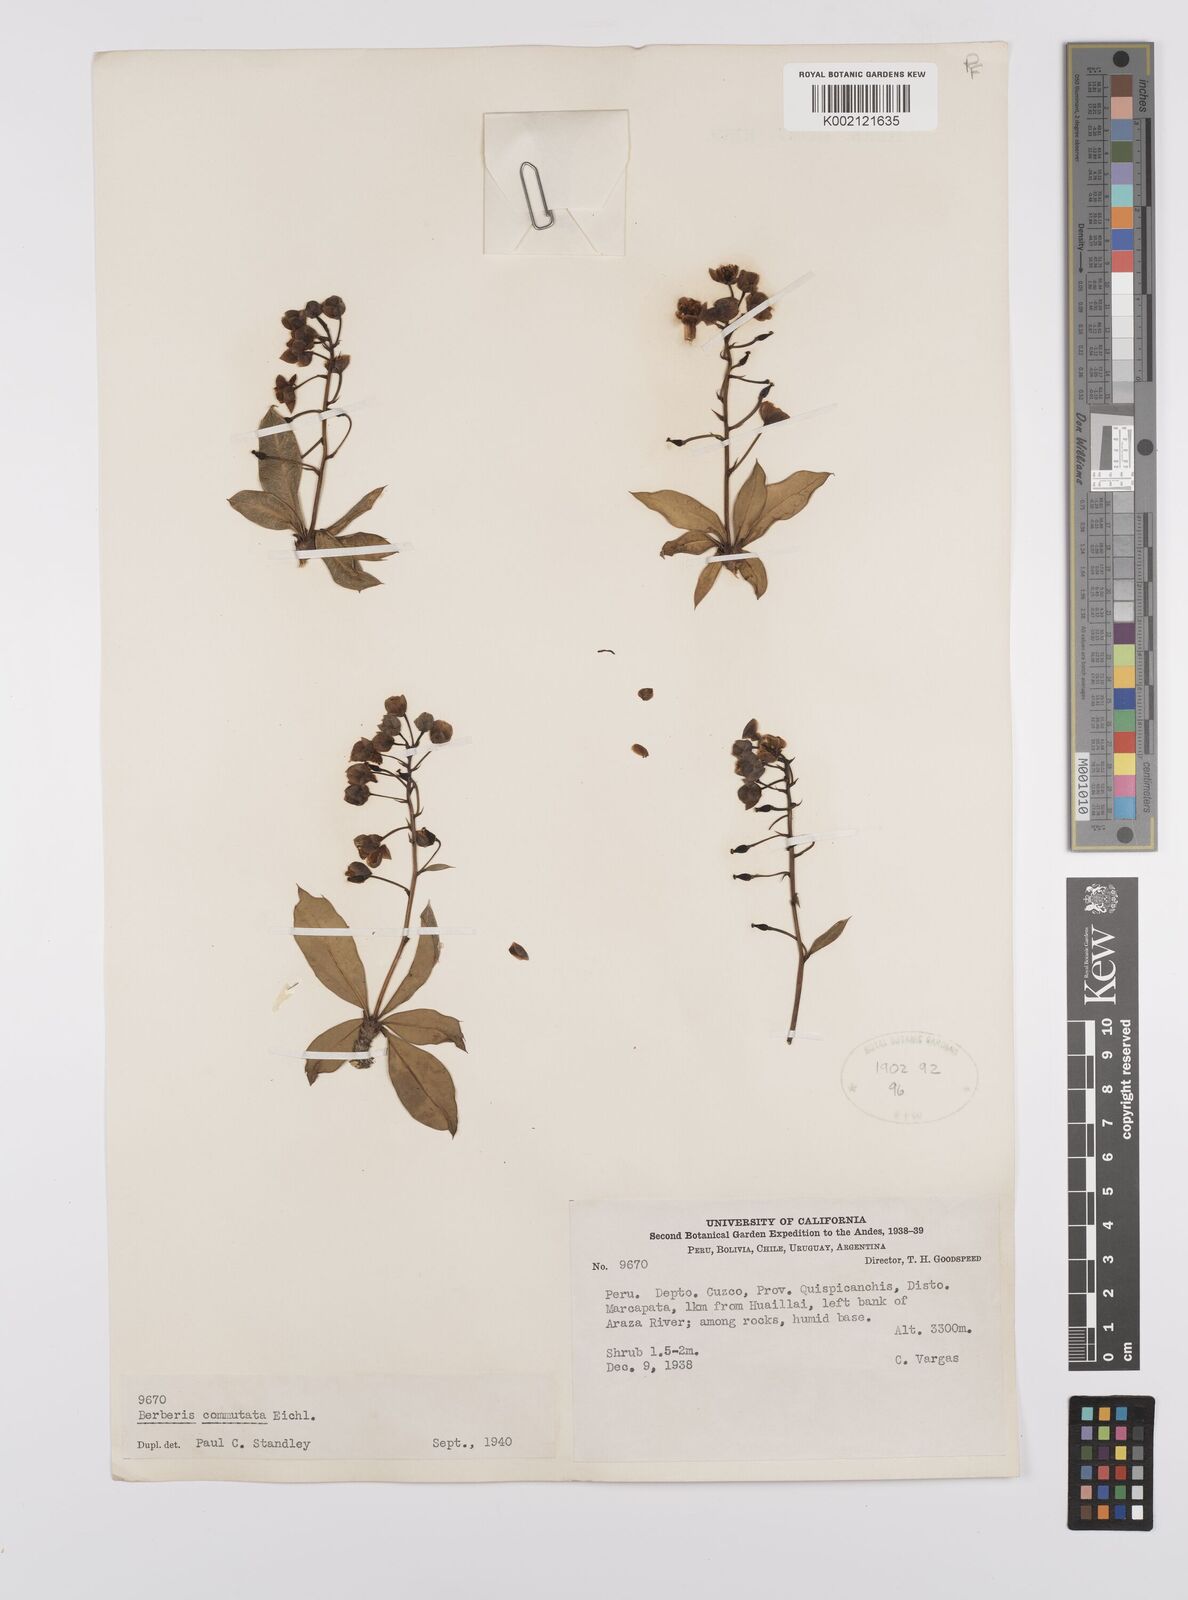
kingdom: Plantae
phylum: Tracheophyta
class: Magnoliopsida
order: Ranunculales
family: Berberidaceae
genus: Berberis
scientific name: Berberis commutata
